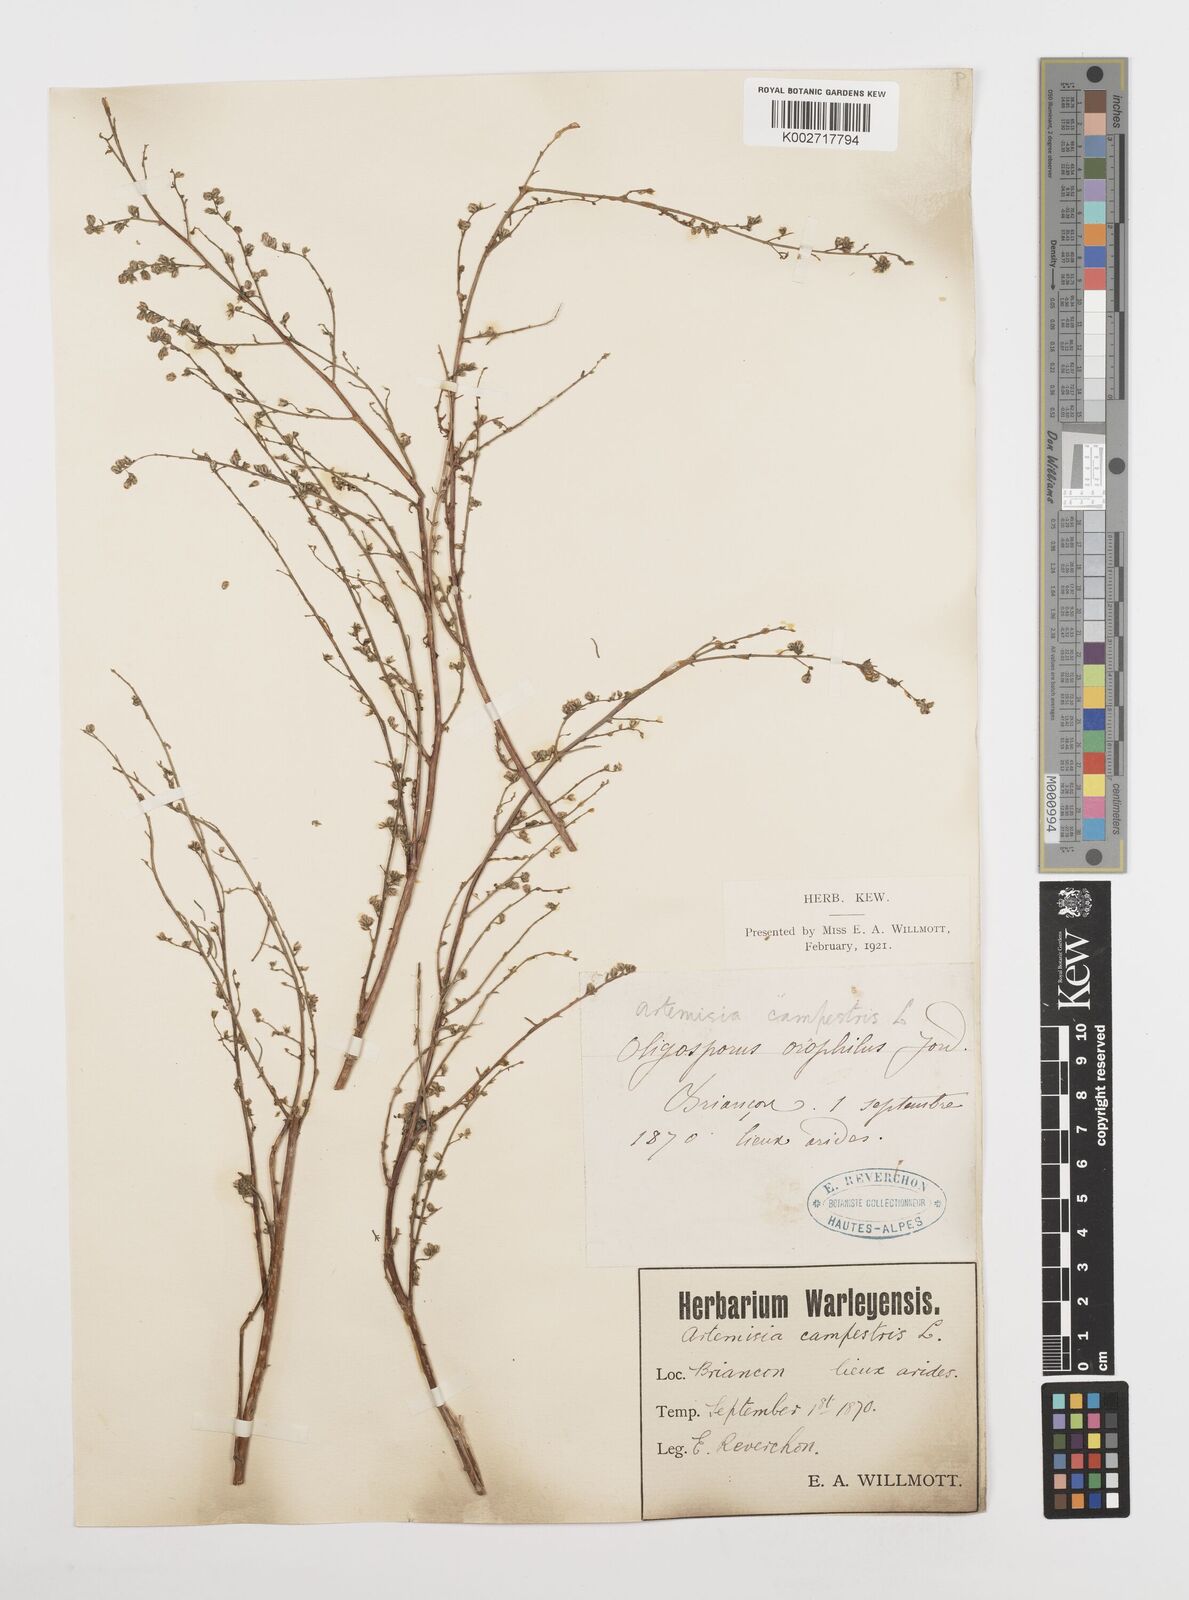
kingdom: Plantae
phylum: Tracheophyta
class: Magnoliopsida
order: Asterales
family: Asteraceae
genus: Artemisia
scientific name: Artemisia
